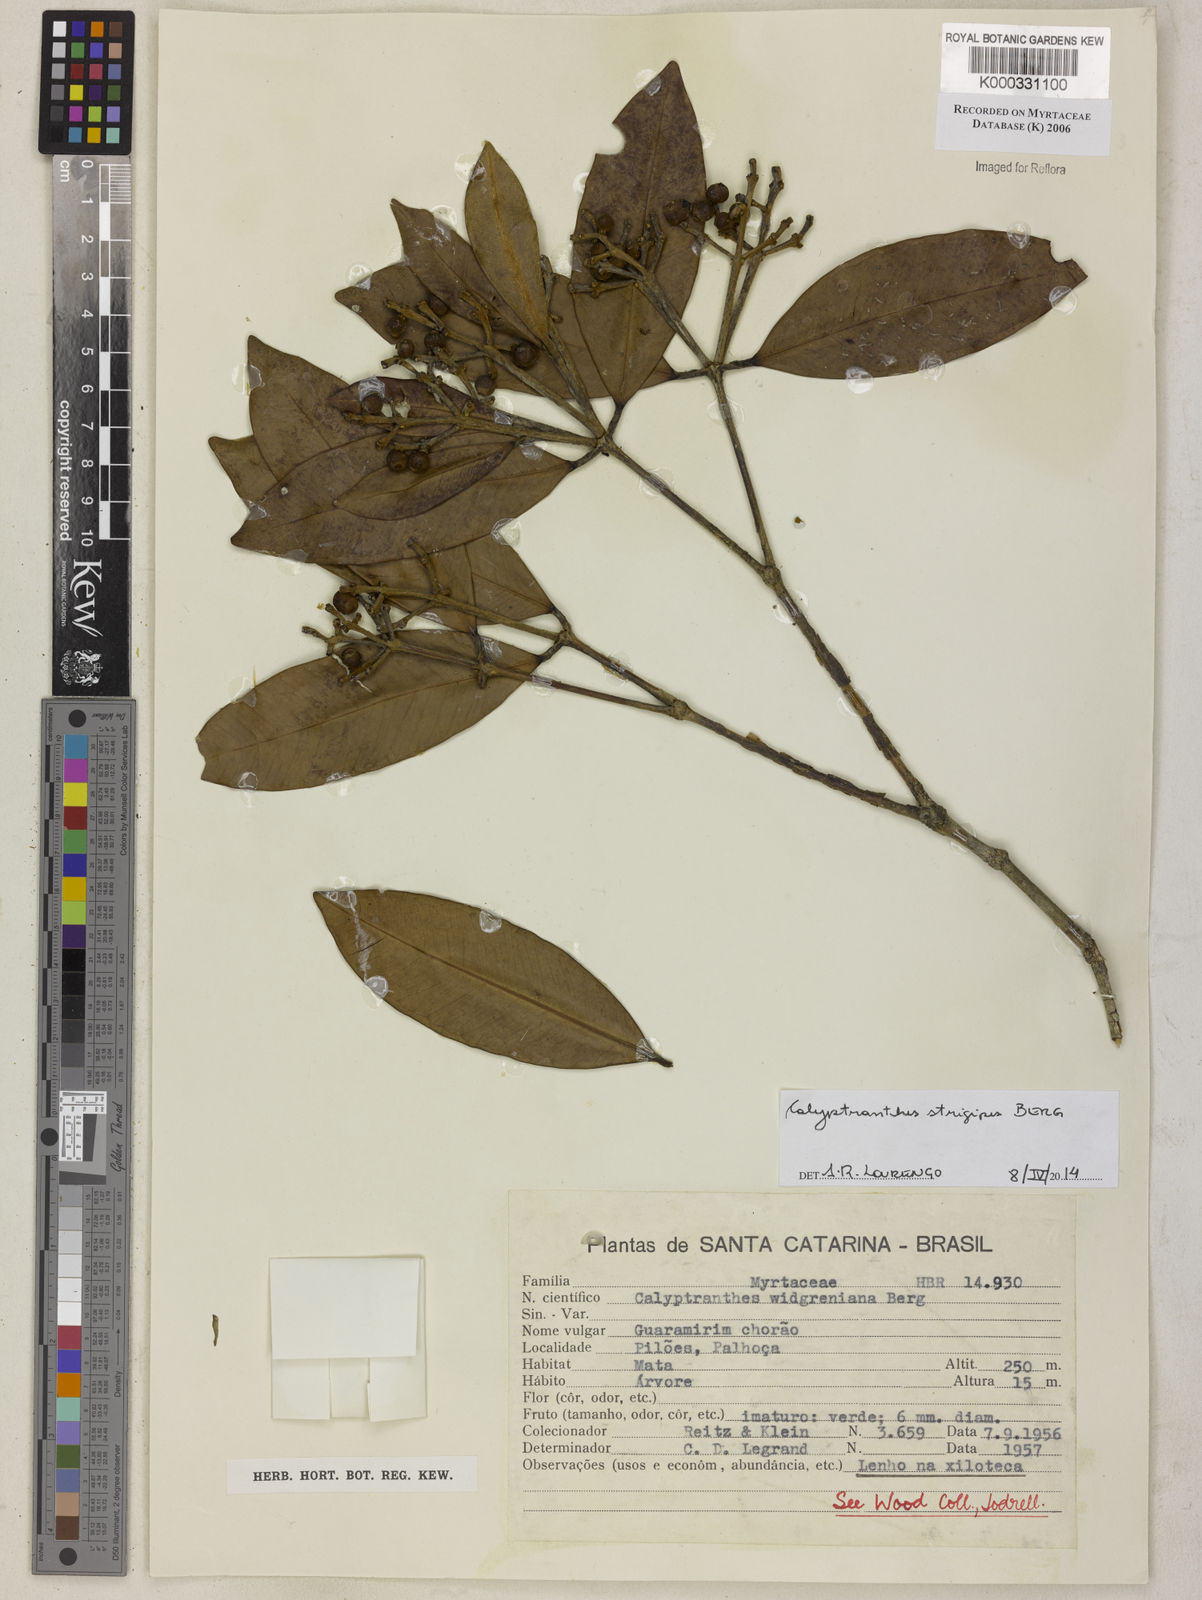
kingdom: Plantae
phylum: Tracheophyta
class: Magnoliopsida
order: Myrtales
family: Myrtaceae
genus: Calyptranthes
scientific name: Calyptranthes widgreniana
